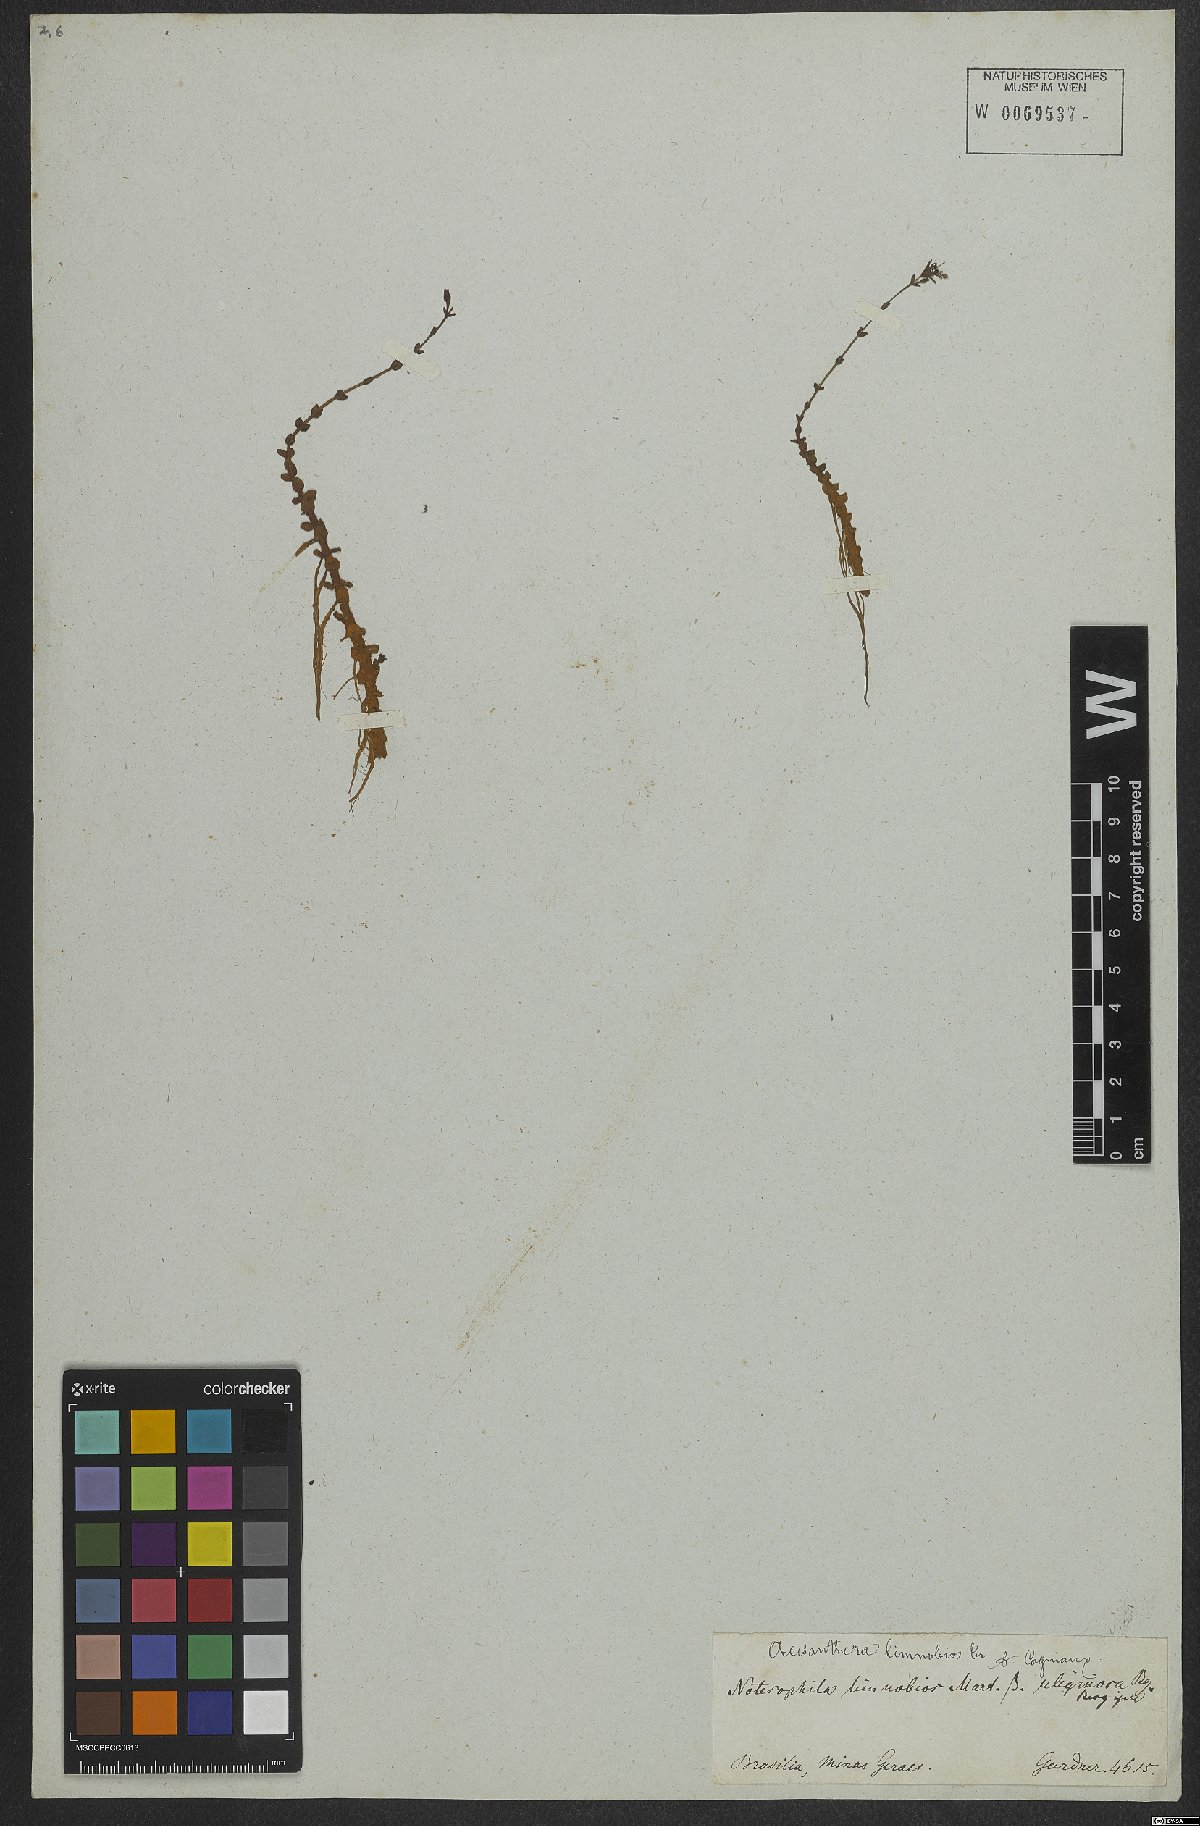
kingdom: Plantae
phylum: Tracheophyta
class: Magnoliopsida
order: Myrtales
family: Melastomataceae
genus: Noterophila
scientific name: Noterophila limnobios
